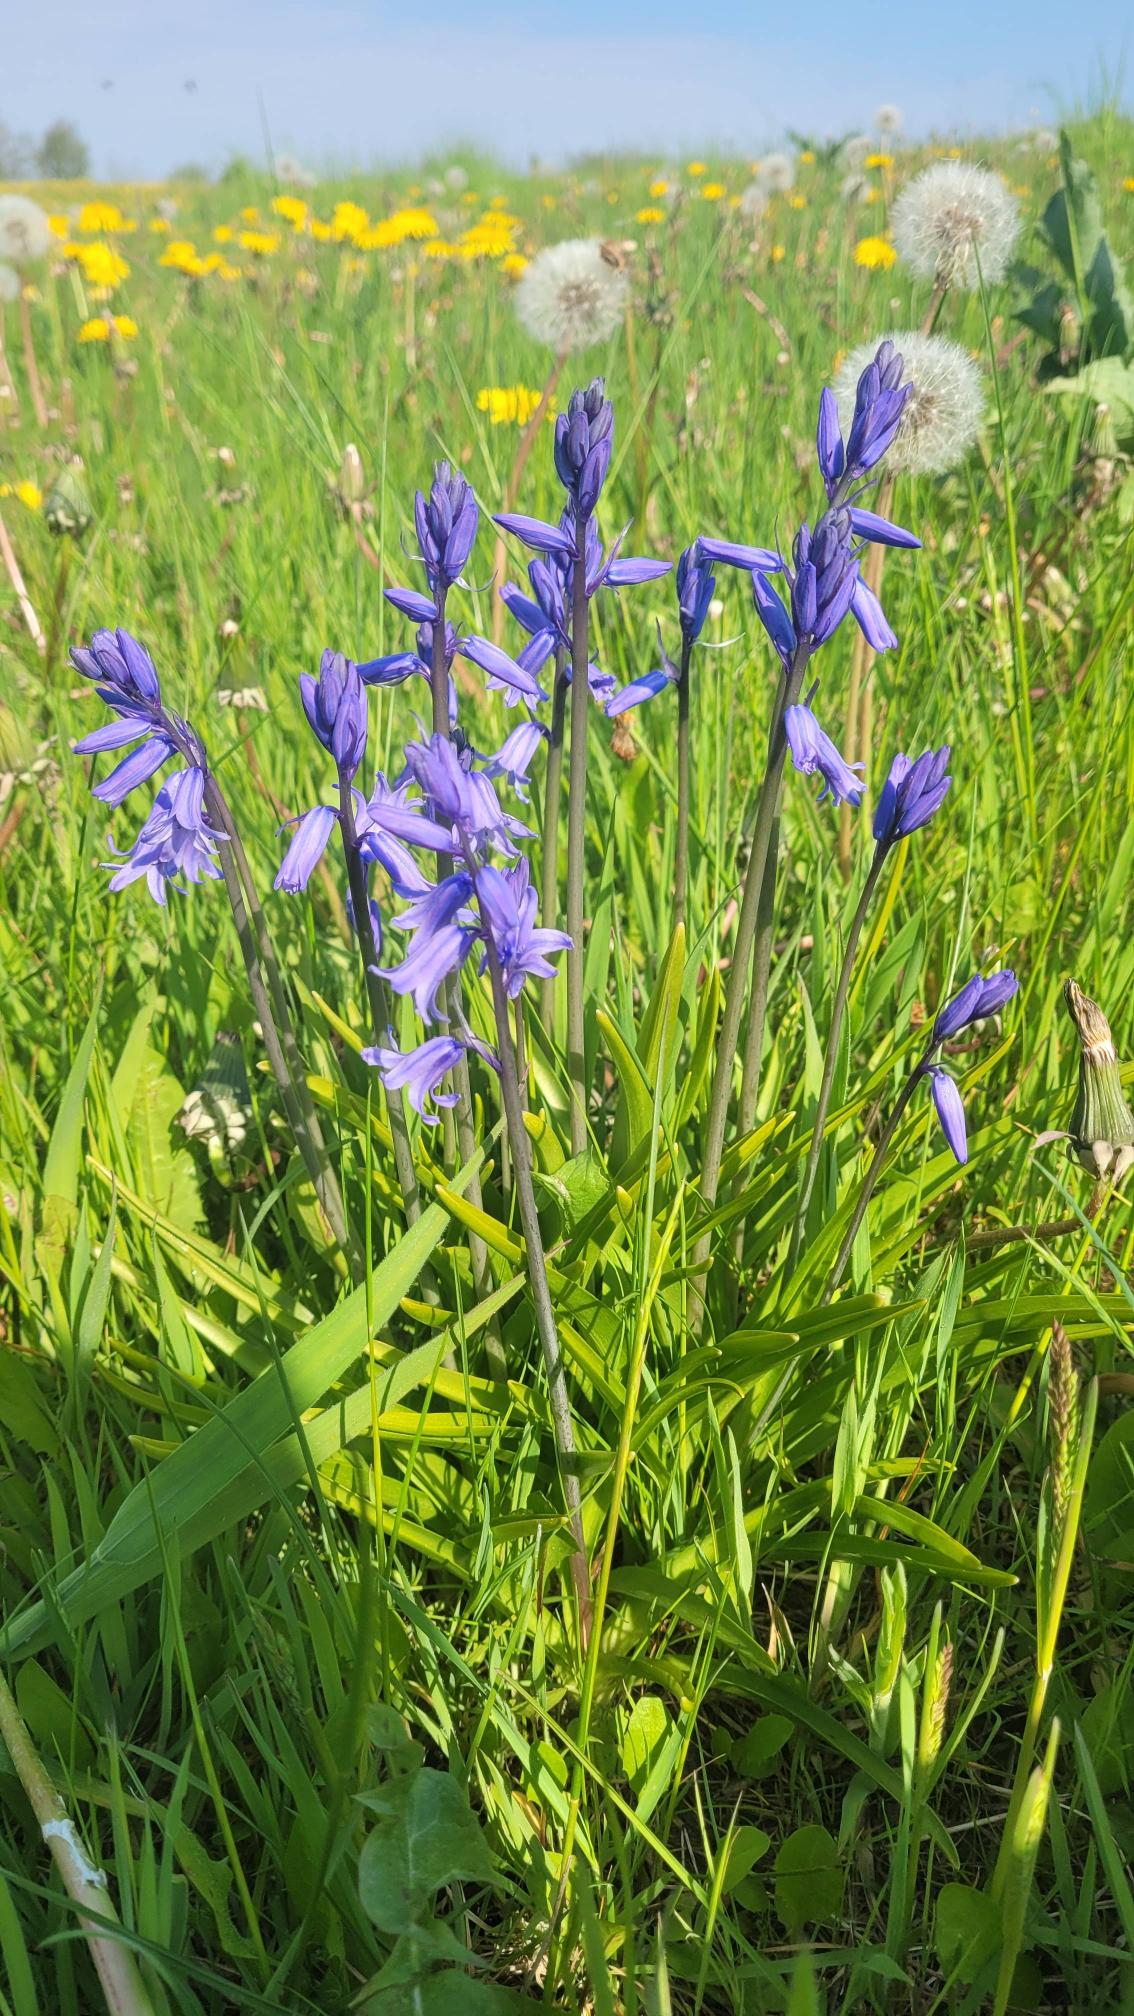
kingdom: Plantae
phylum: Tracheophyta
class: Liliopsida
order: Asparagales
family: Asparagaceae
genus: Hyacinthoides
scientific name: Hyacinthoides massartiana
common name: Hybrid-klokkeskilla
